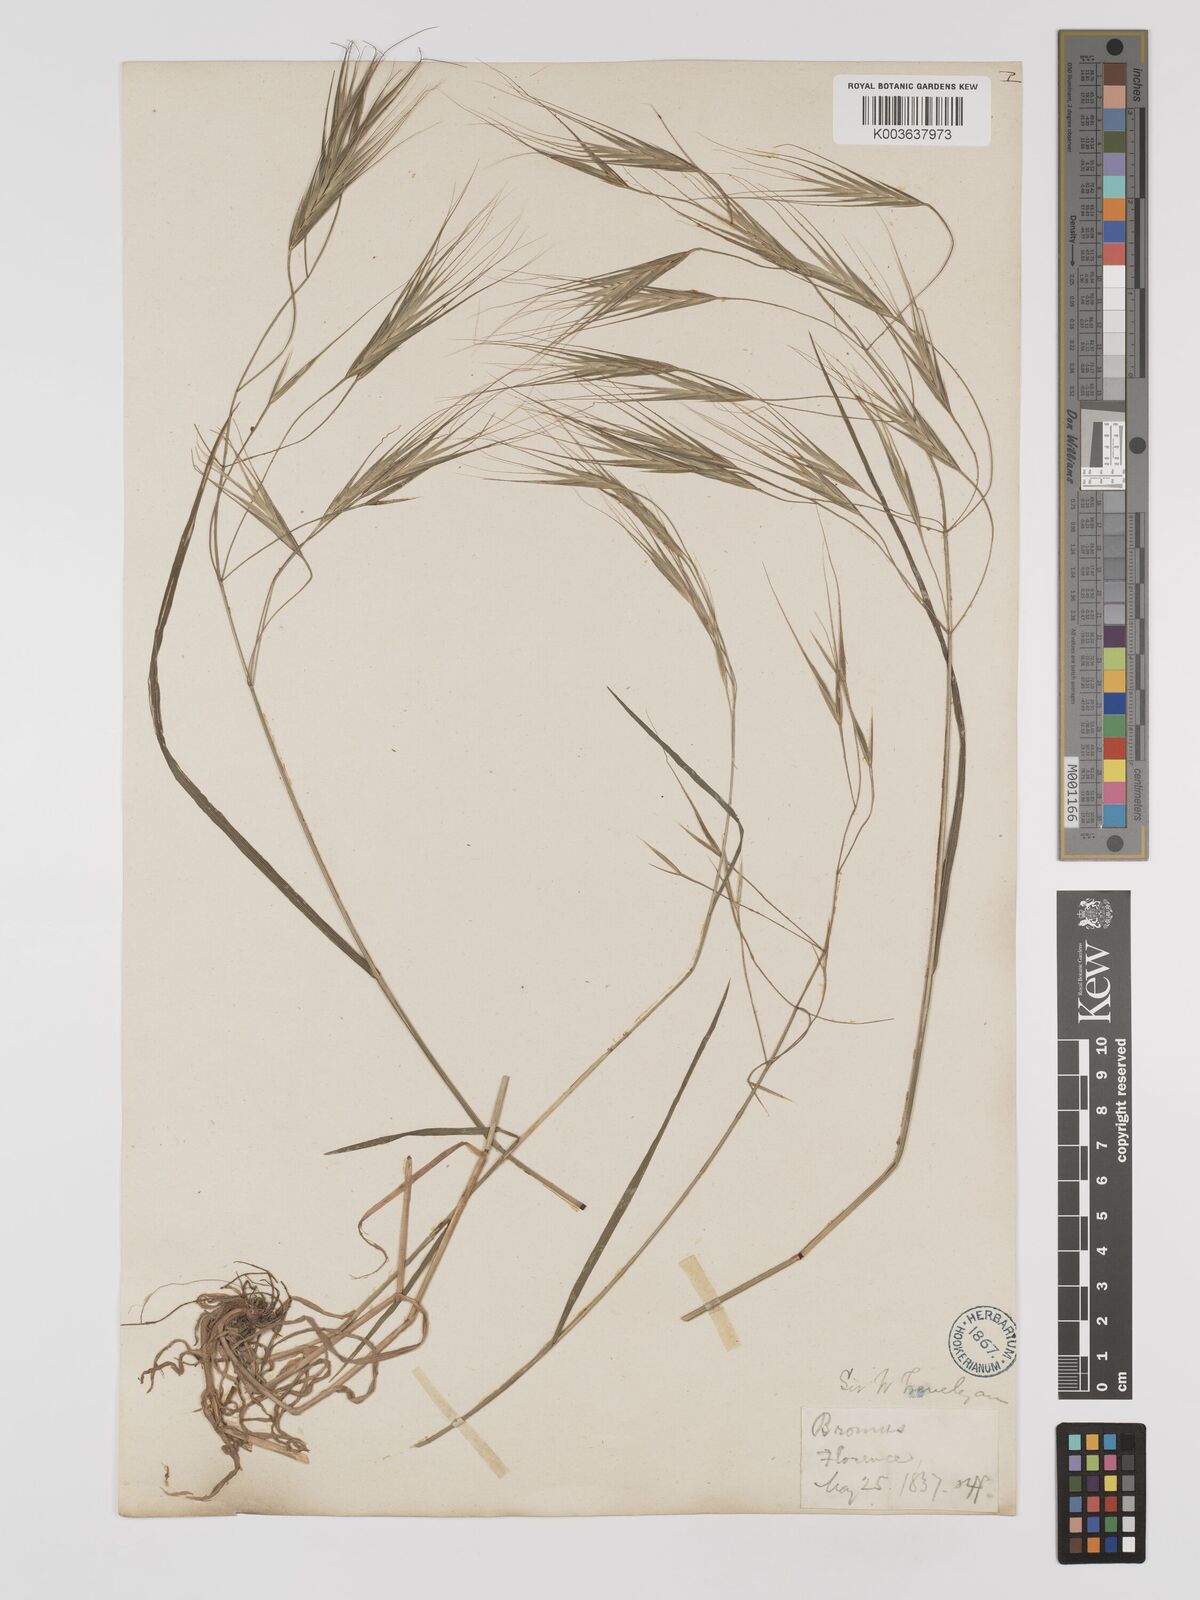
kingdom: Plantae
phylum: Tracheophyta
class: Liliopsida
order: Poales
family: Poaceae
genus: Bromus
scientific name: Bromus
